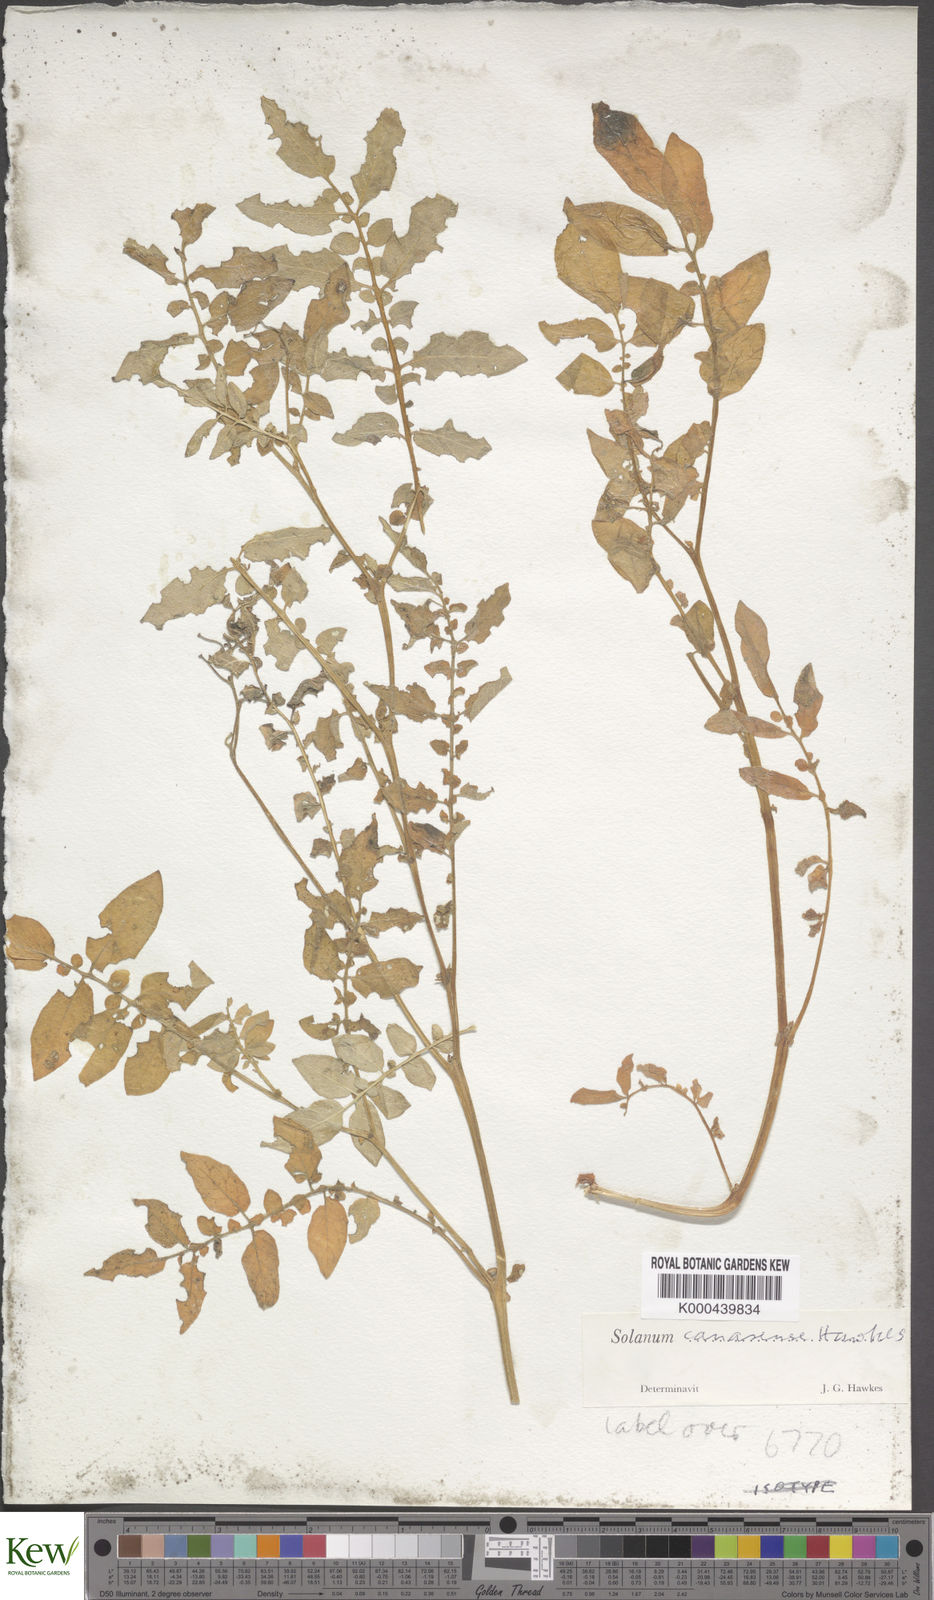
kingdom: Plantae
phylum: Tracheophyta
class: Magnoliopsida
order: Solanales
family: Solanaceae
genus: Solanum
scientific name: Solanum insanum
